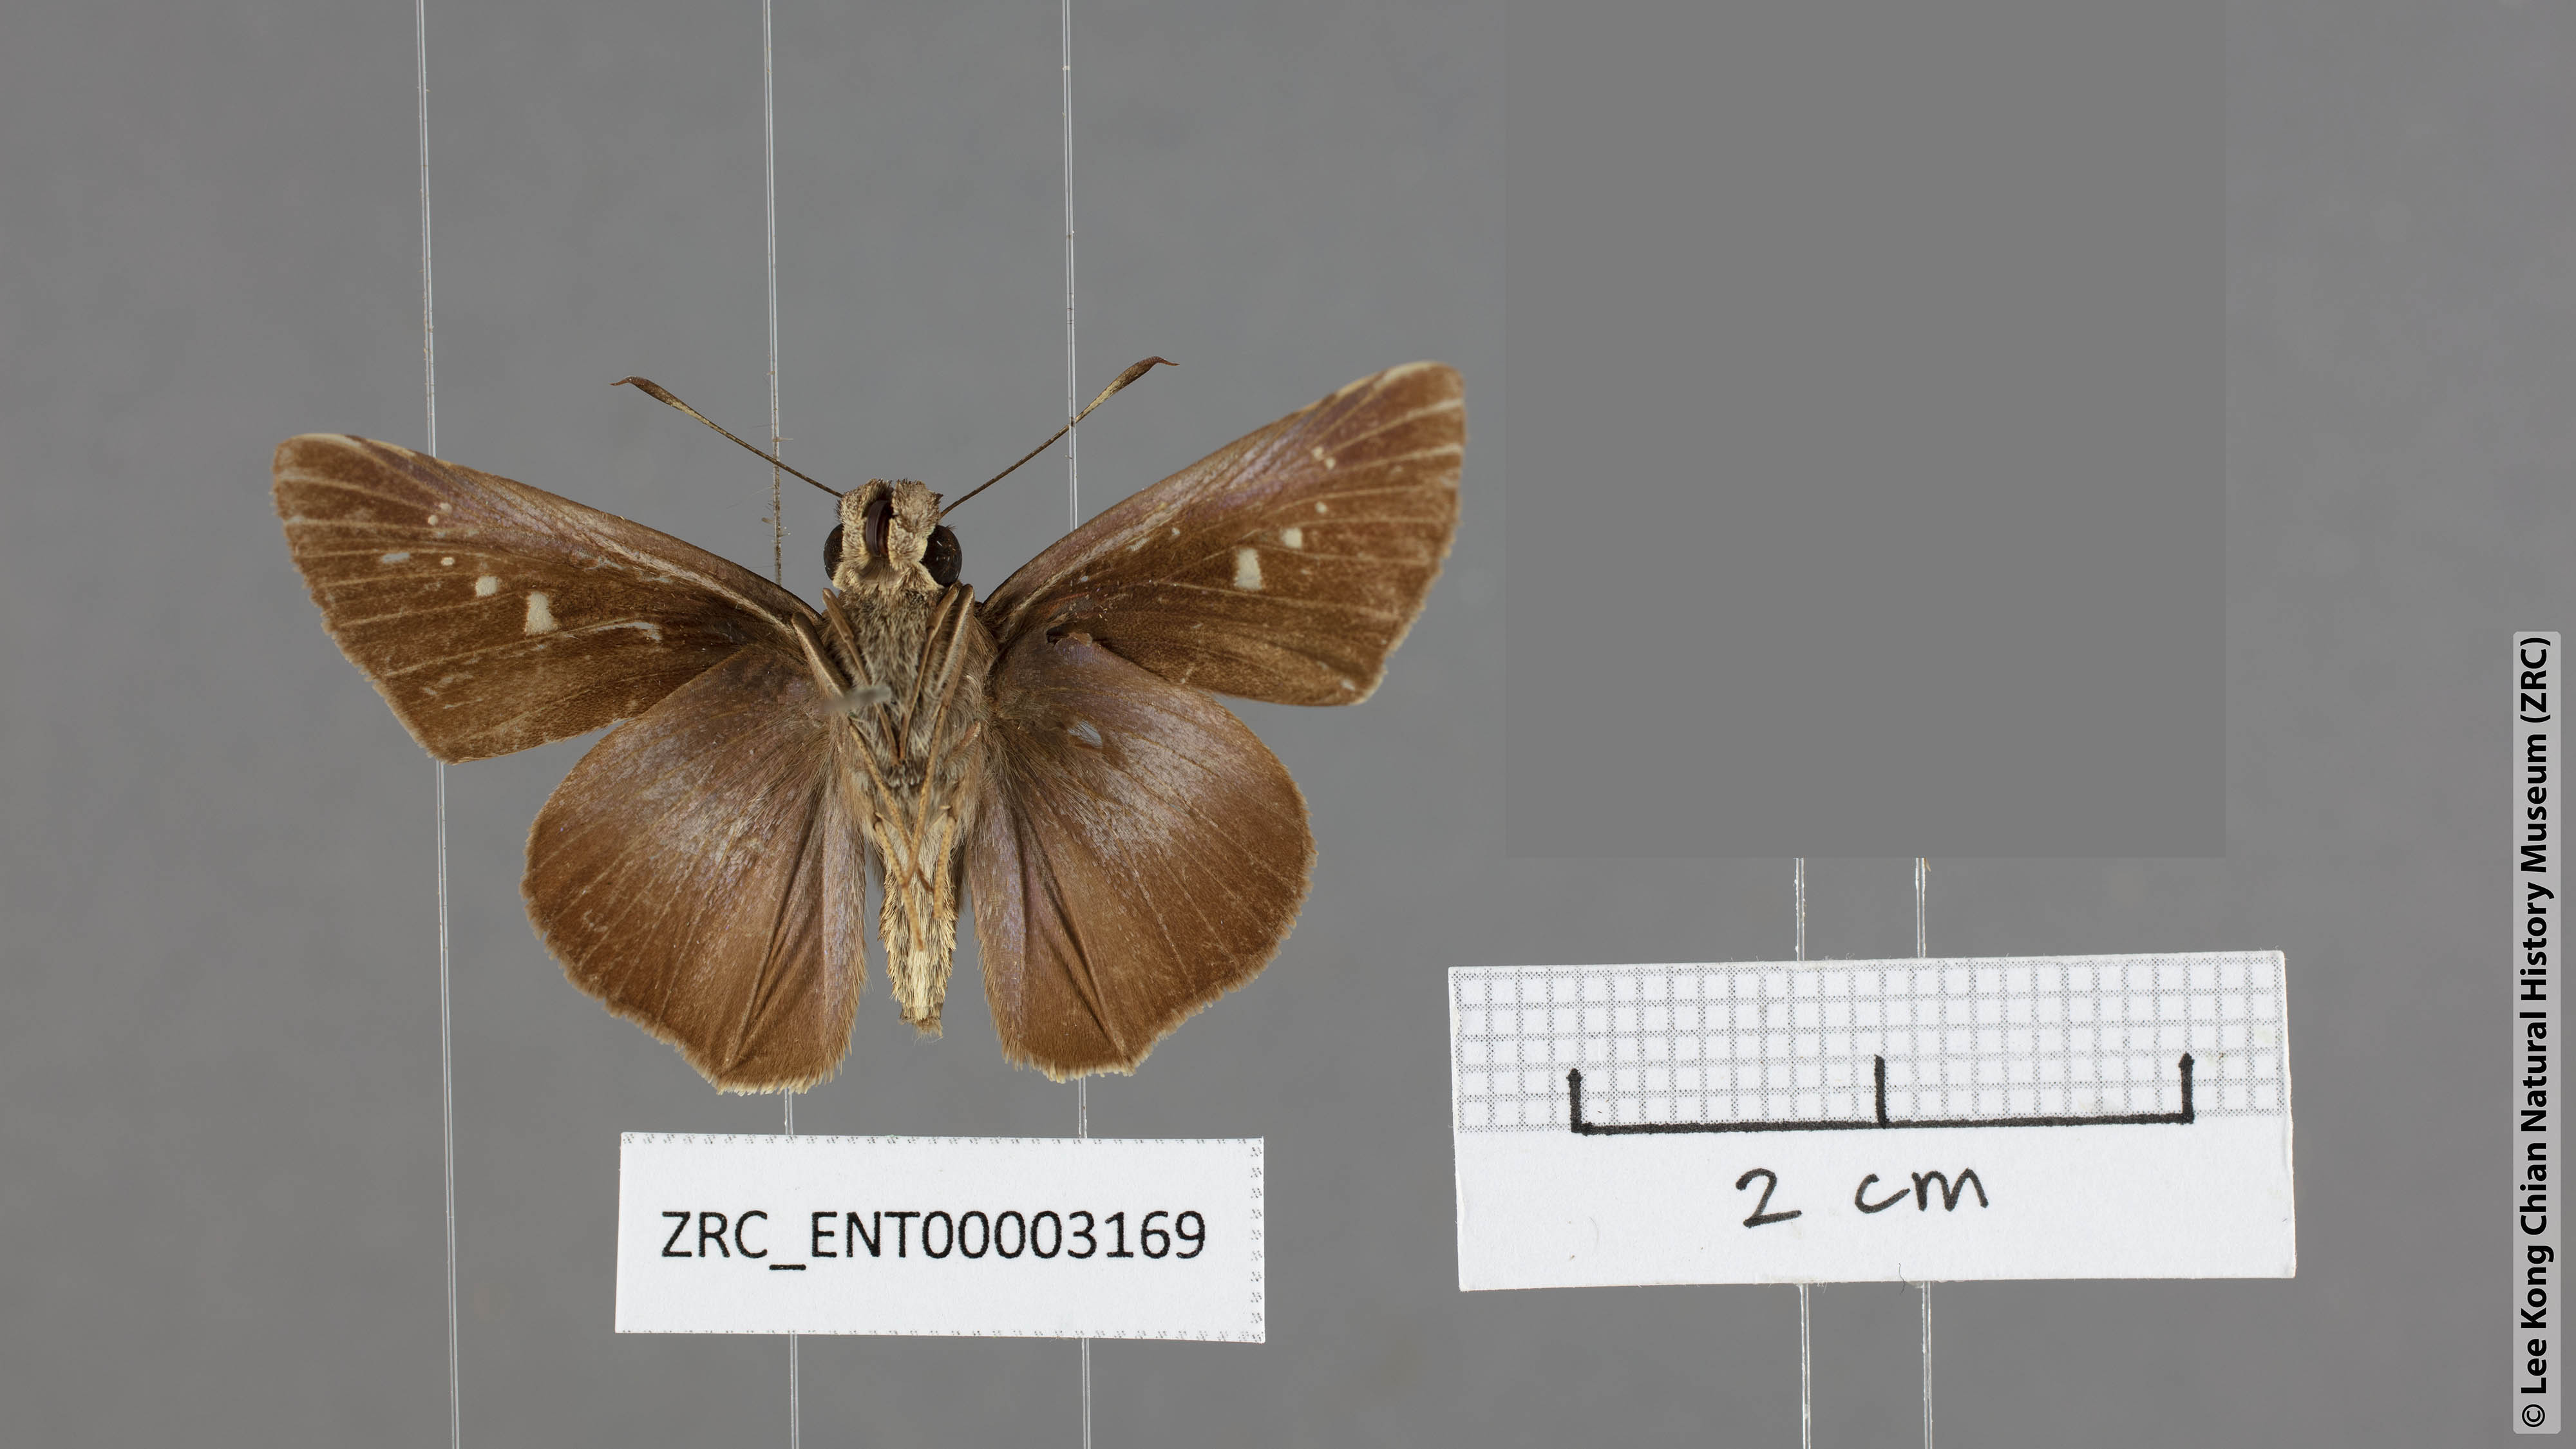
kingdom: Animalia
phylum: Arthropoda
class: Insecta
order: Lepidoptera
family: Hesperiidae
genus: Caltoris
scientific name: Caltoris tulsi
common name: Purple swift
